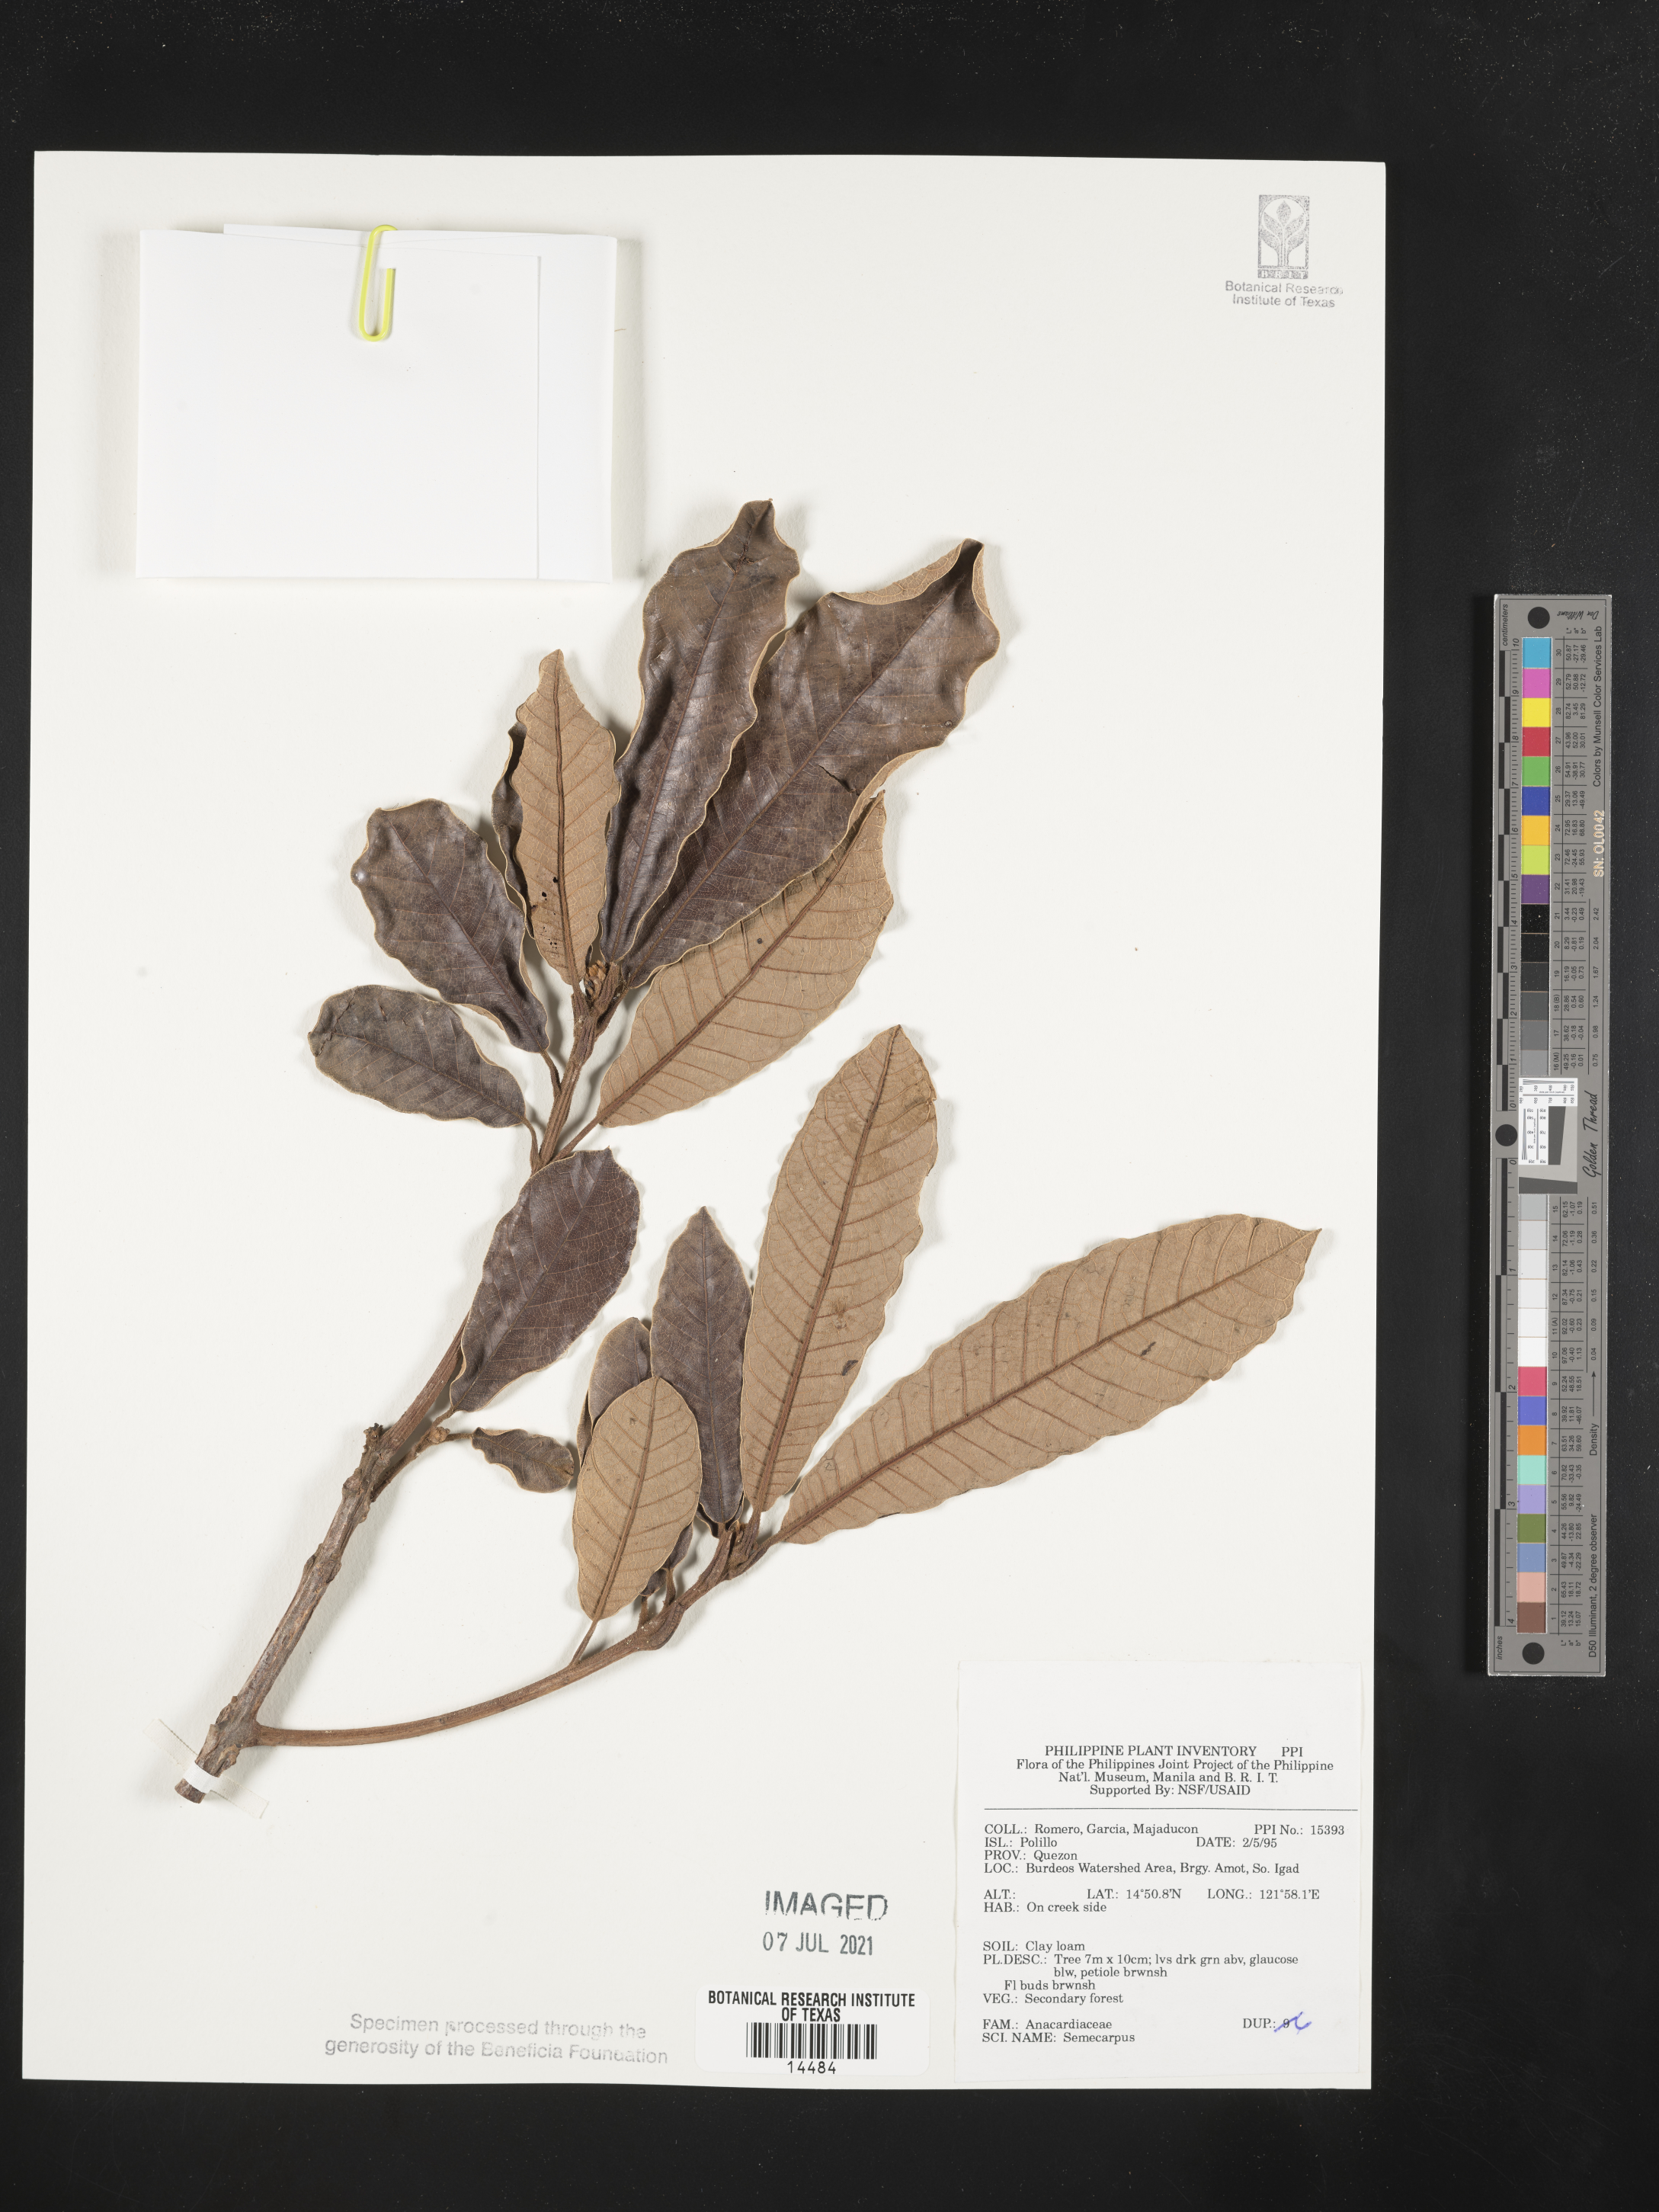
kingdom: Plantae
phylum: Tracheophyta
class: Magnoliopsida
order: Sapindales
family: Anacardiaceae
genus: Semecarpus
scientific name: Semecarpus
